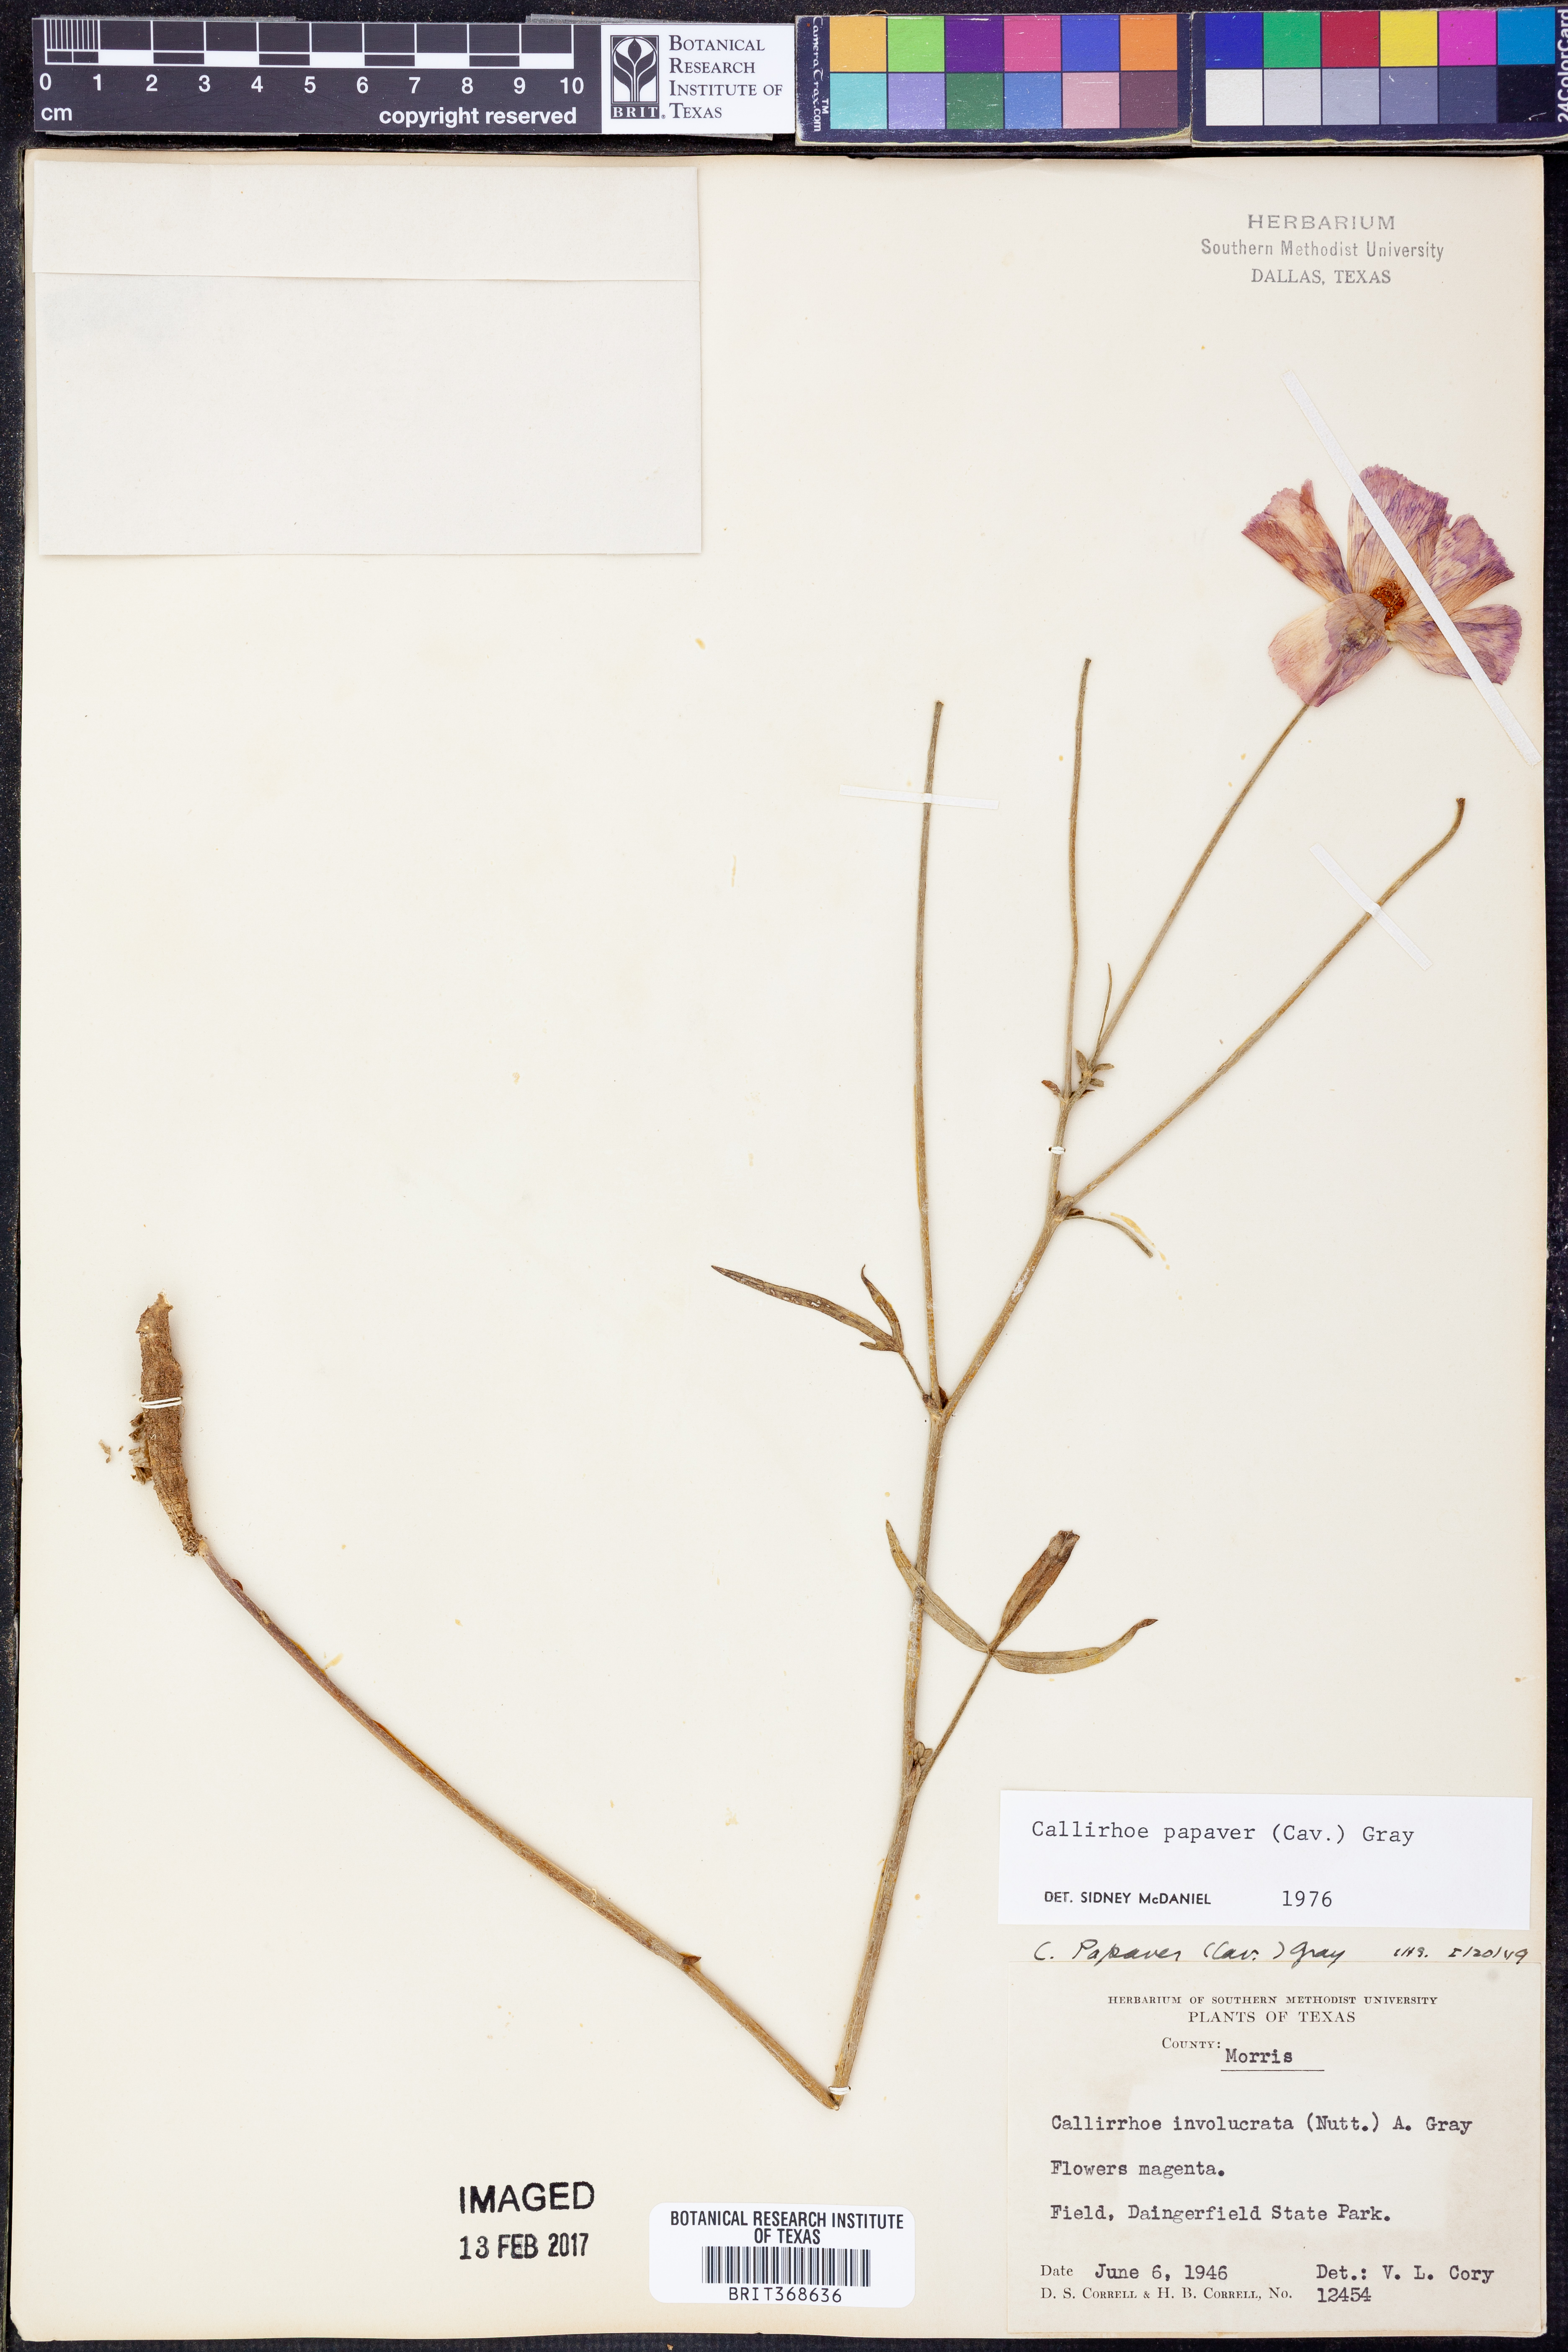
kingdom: Plantae
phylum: Tracheophyta
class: Magnoliopsida
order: Malvales
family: Malvaceae
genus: Callirhoe
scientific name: Callirhoe papaver
